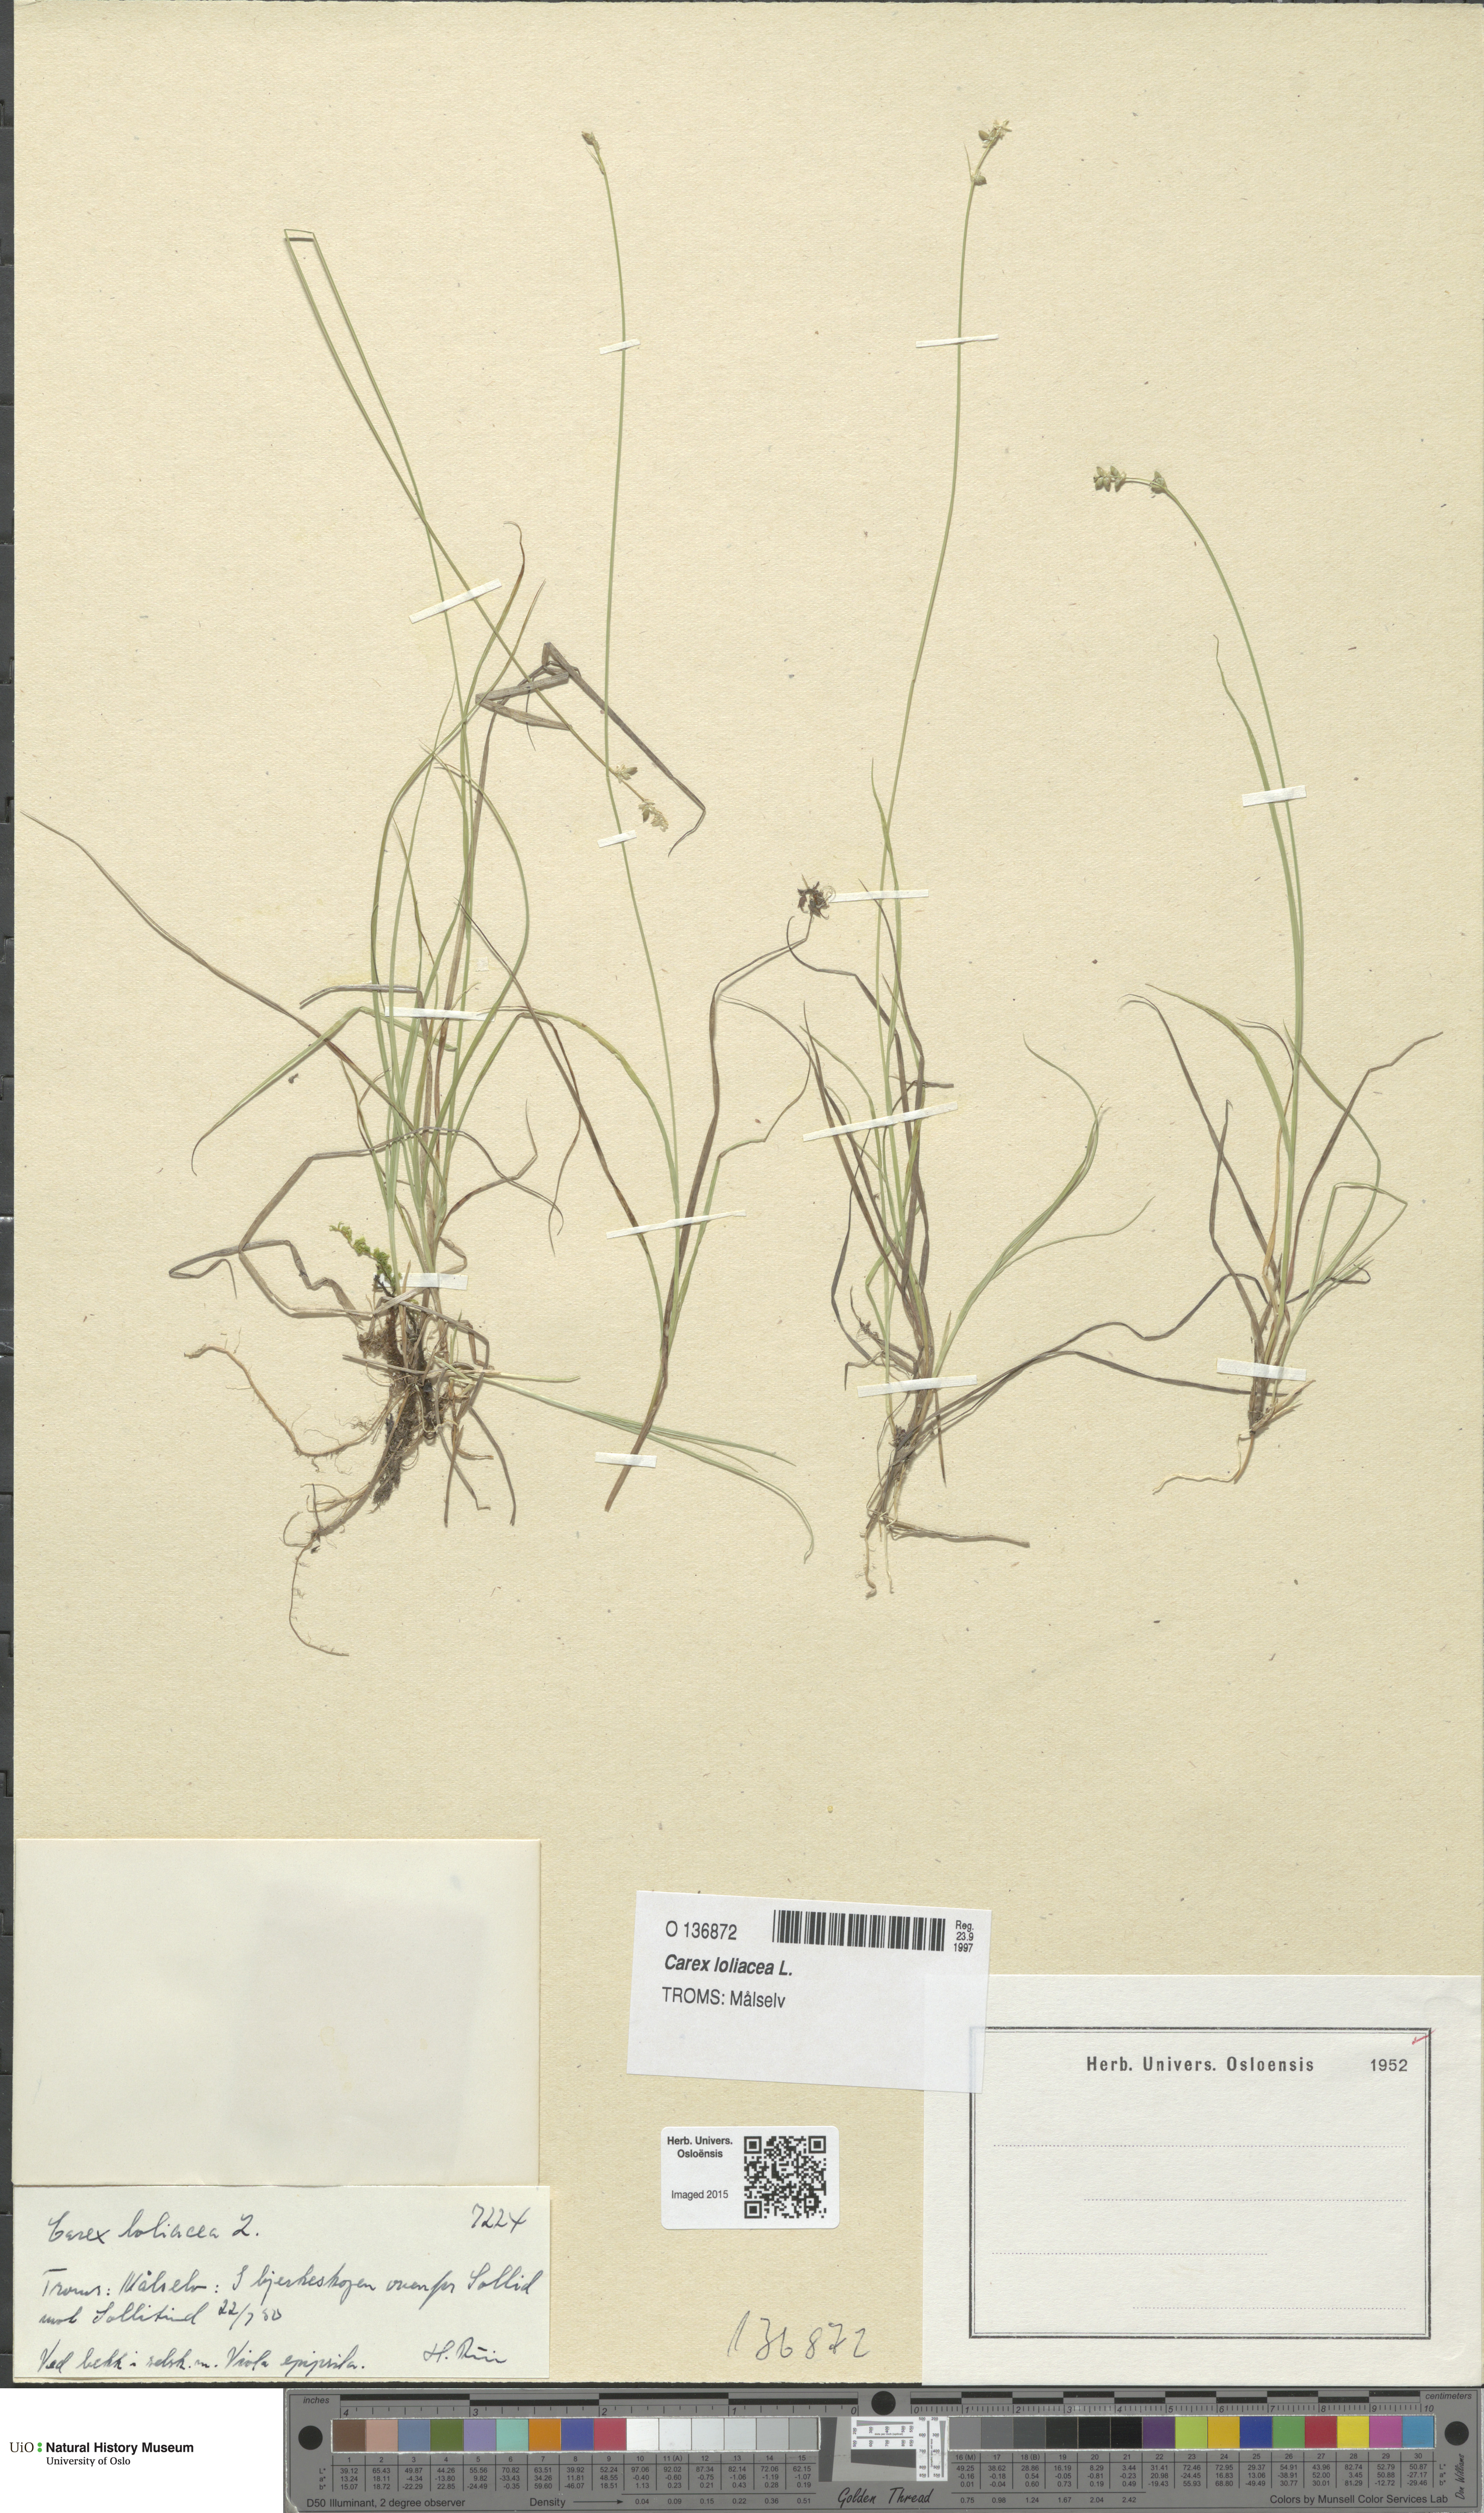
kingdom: Plantae
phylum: Tracheophyta
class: Liliopsida
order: Poales
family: Cyperaceae
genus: Carex
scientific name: Carex loliacea
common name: Ryegrass sedge
